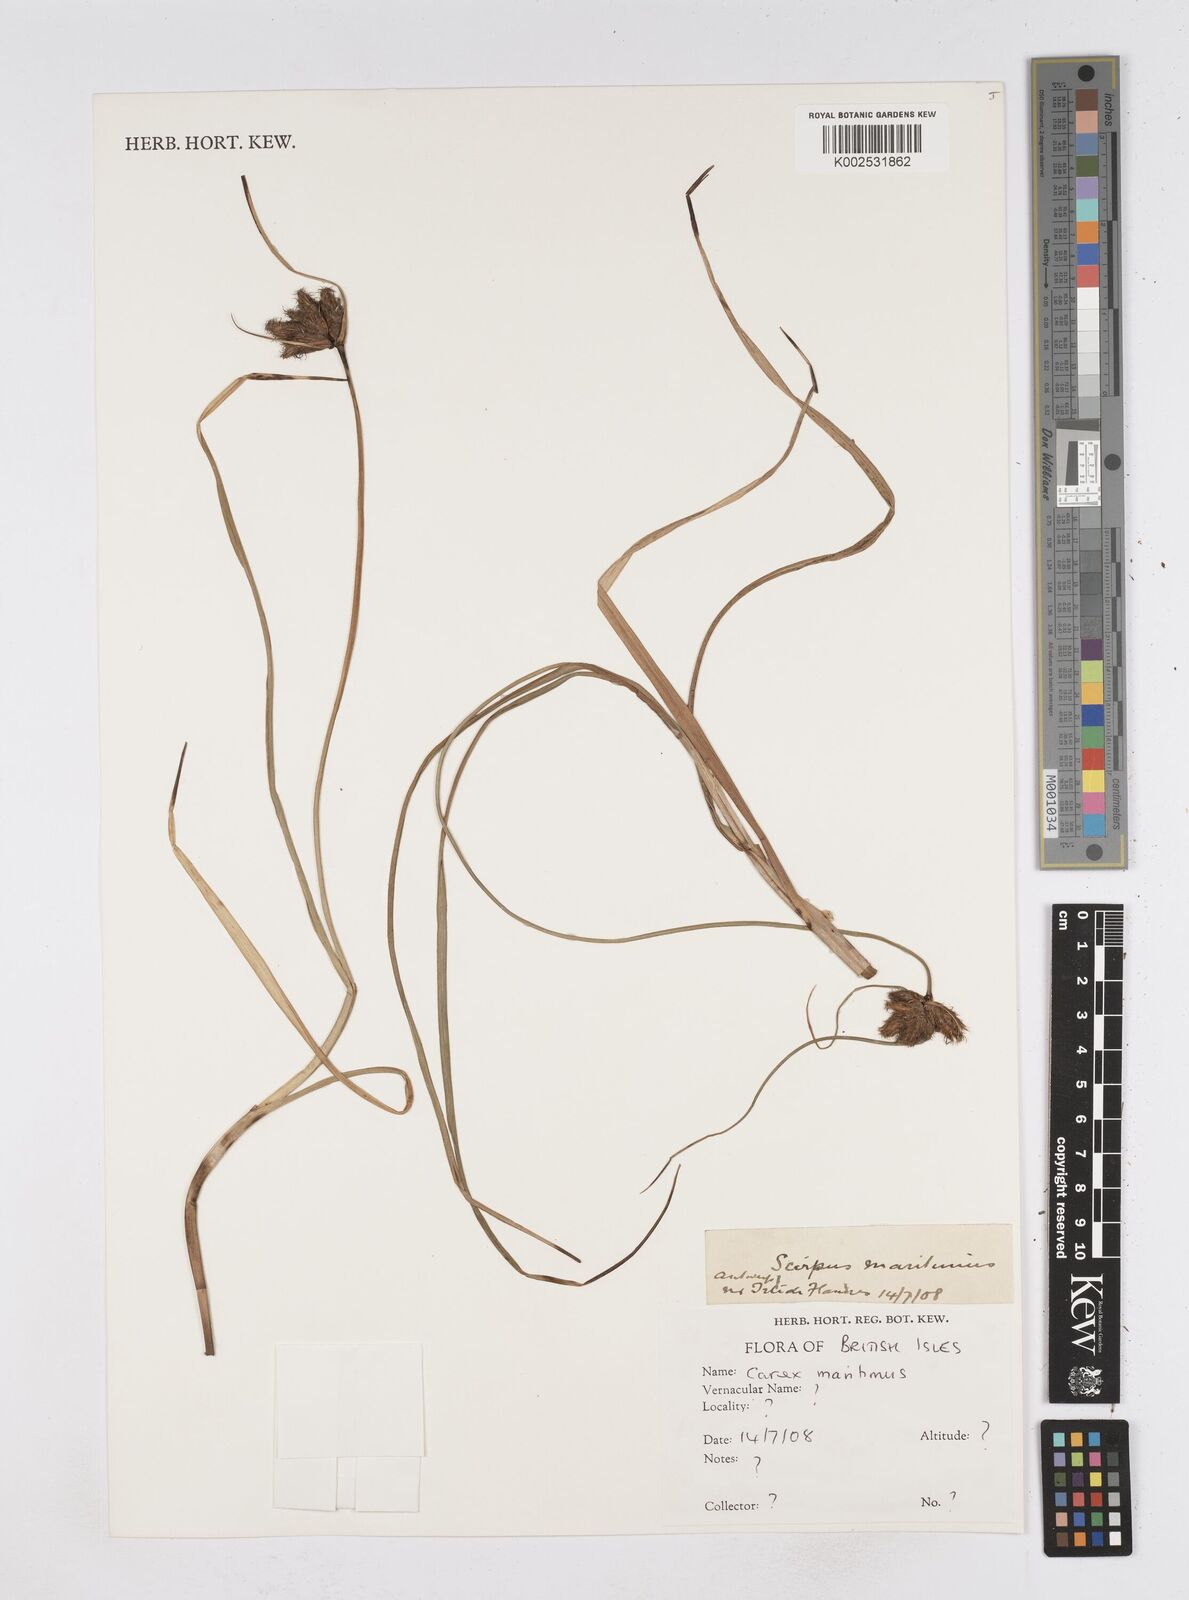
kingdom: Plantae
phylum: Tracheophyta
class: Liliopsida
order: Poales
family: Cyperaceae
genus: Bolboschoenus
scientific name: Bolboschoenus maritimus
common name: Sea club-rush
